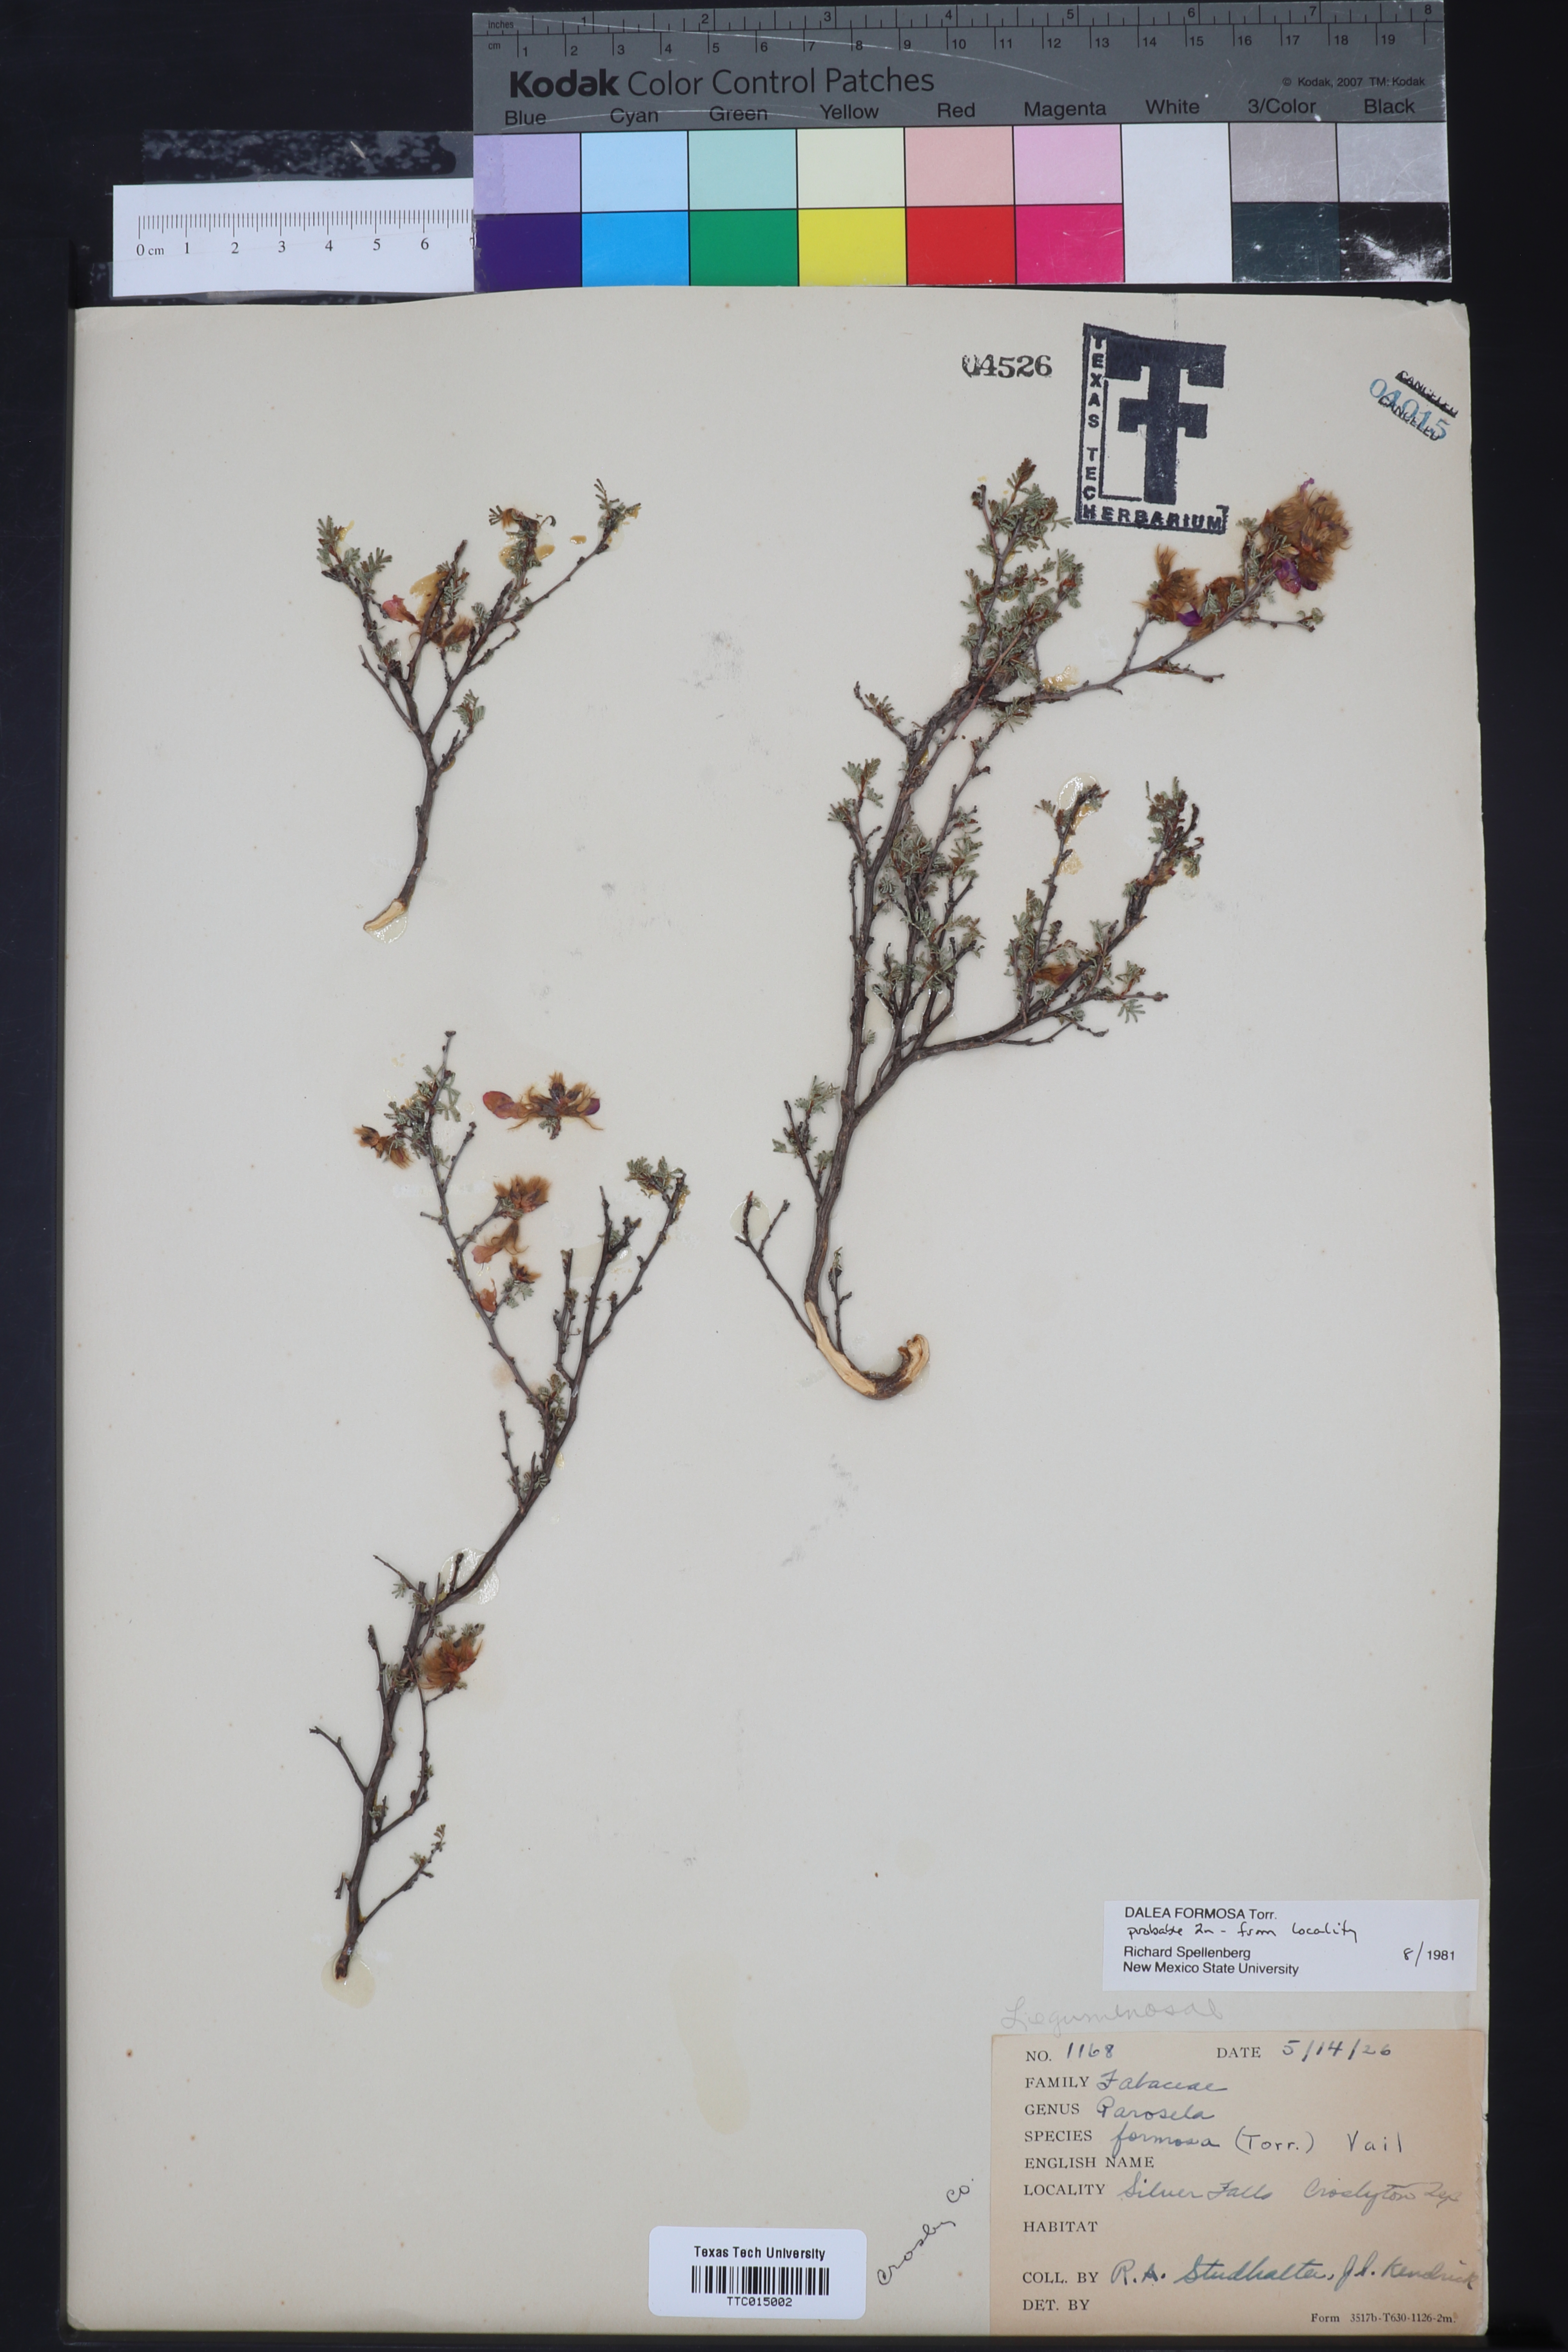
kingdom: Plantae
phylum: Tracheophyta
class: Magnoliopsida
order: Fabales
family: Fabaceae
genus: Dalea
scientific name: Dalea formosa
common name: Feather-plume dalea
